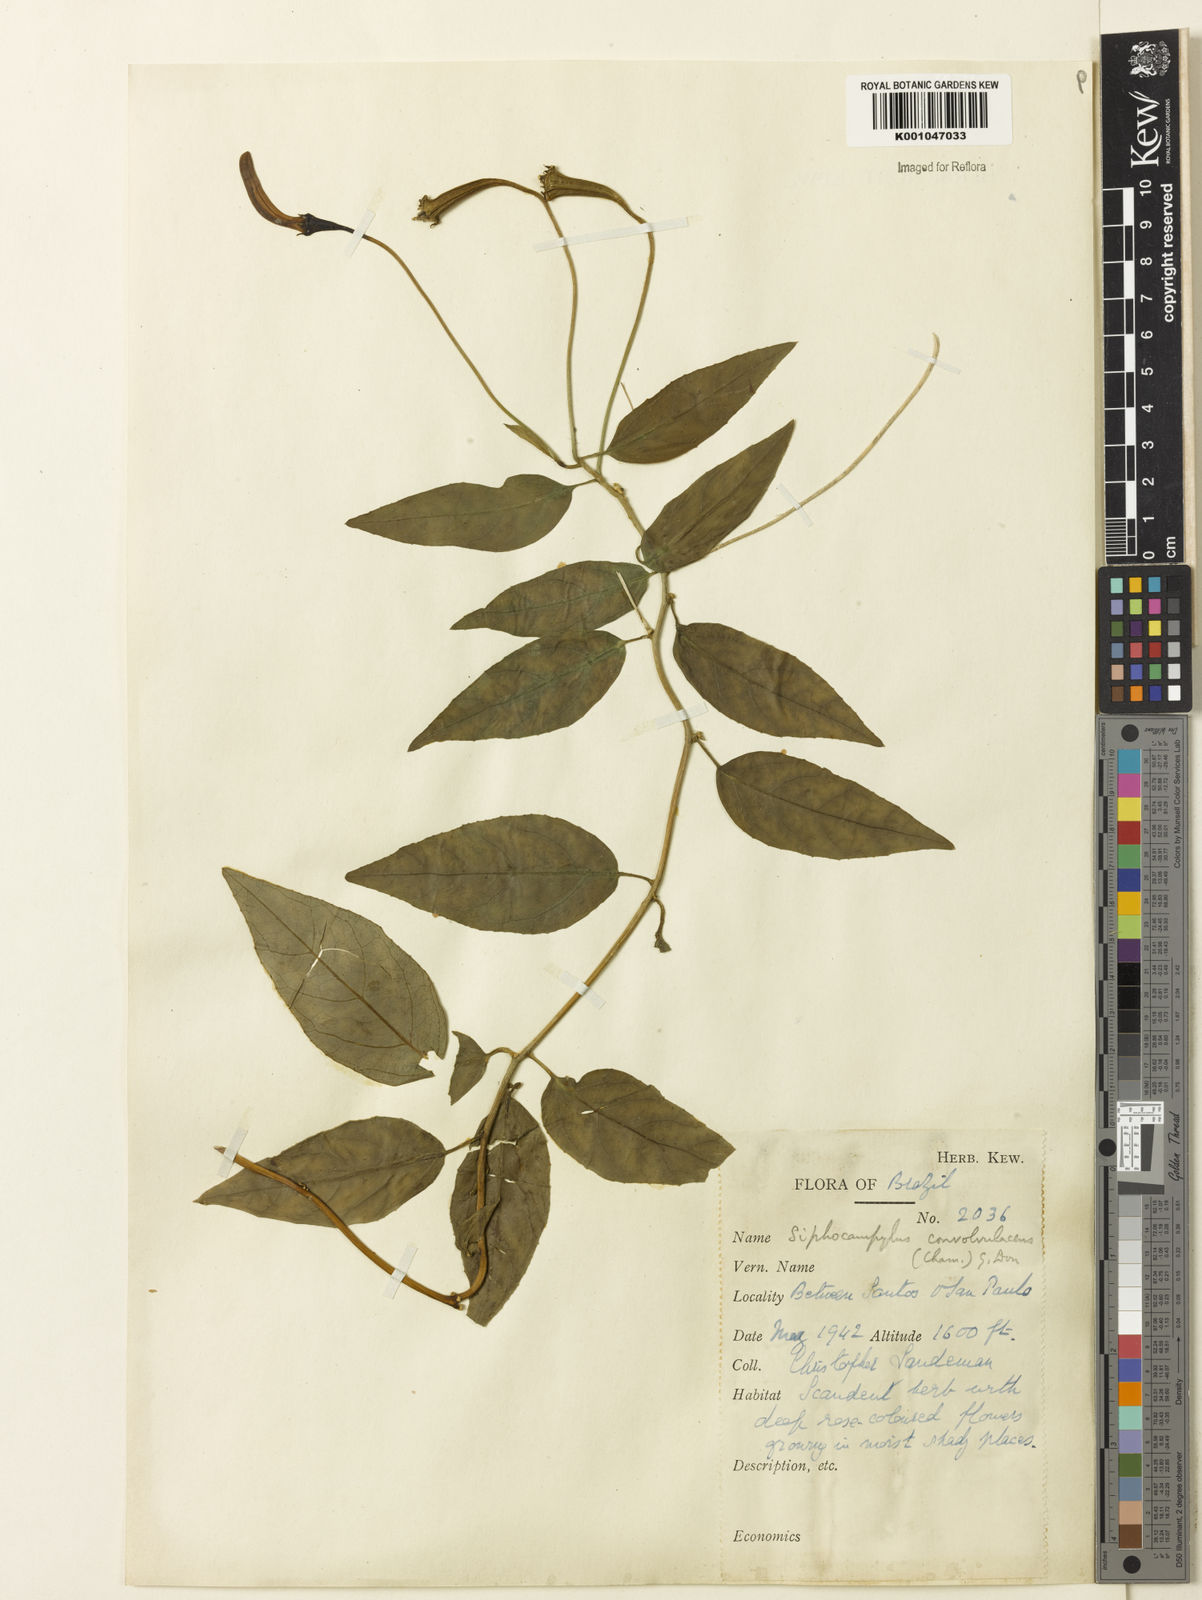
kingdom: Plantae
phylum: Tracheophyta
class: Magnoliopsida
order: Asterales
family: Campanulaceae
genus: Siphocampylus
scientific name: Siphocampylus convolvulaceus
